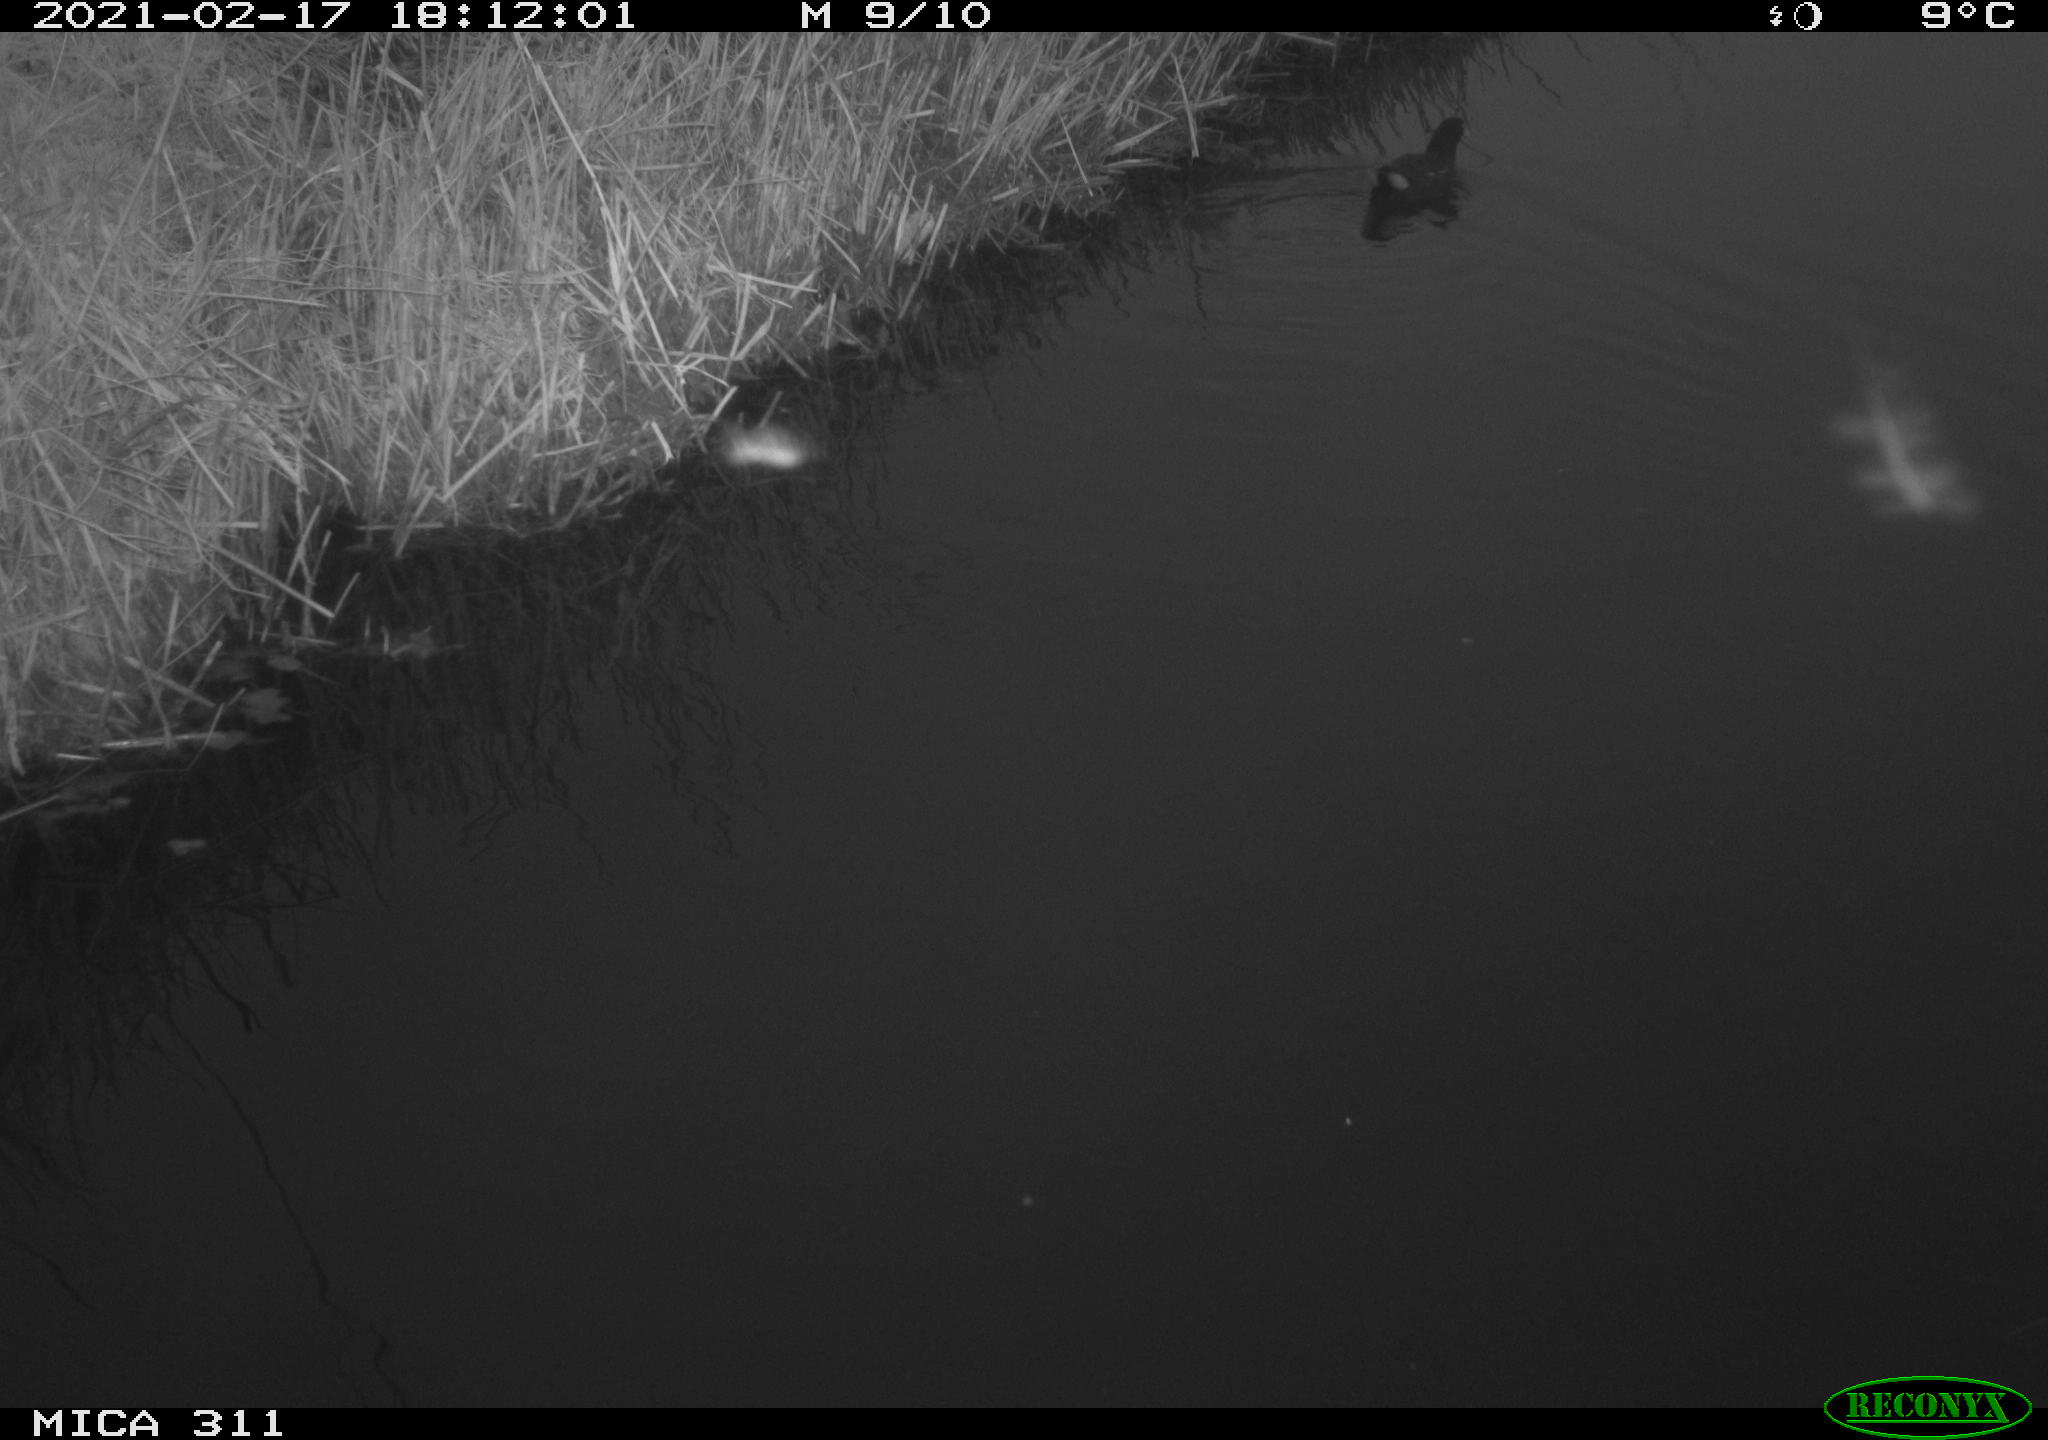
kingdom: Animalia
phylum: Chordata
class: Aves
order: Gruiformes
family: Rallidae
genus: Gallinula
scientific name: Gallinula chloropus
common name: Common moorhen
